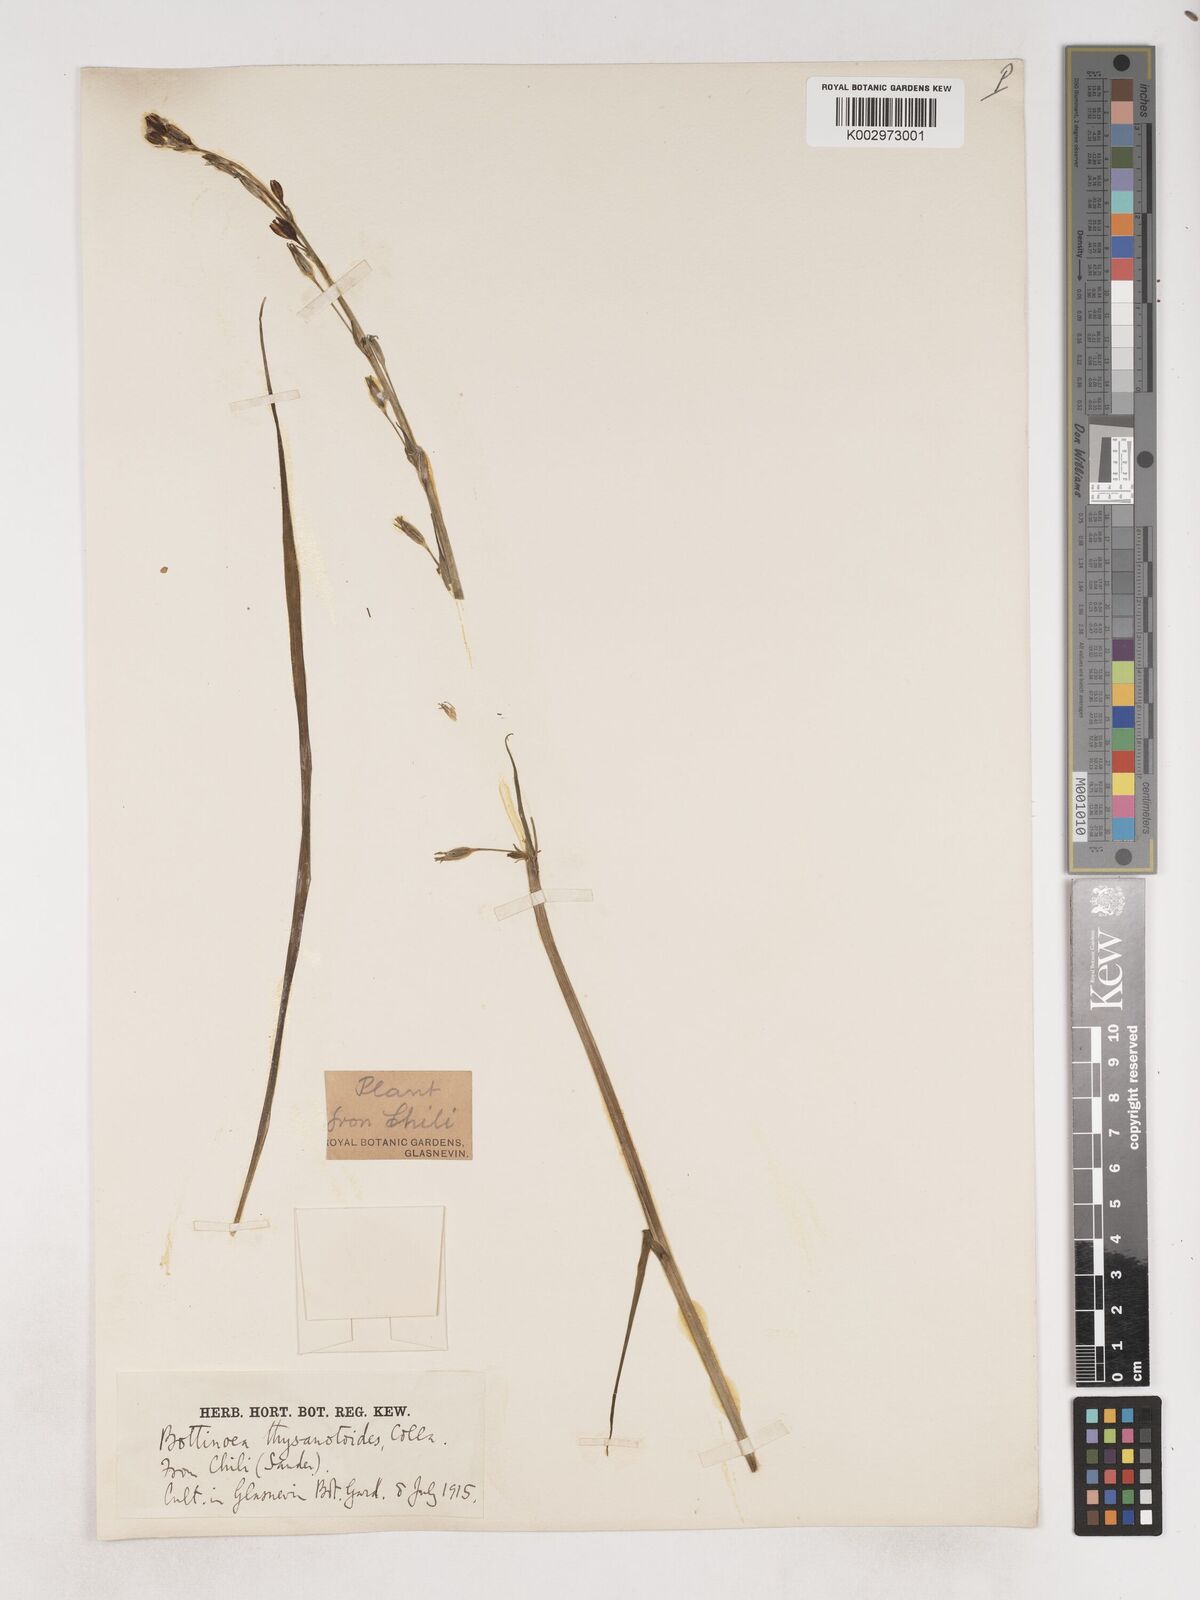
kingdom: Plantae
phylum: Tracheophyta
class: Liliopsida
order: Asparagales
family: Asparagaceae
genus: Trichopetalum
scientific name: Trichopetalum plumosum
